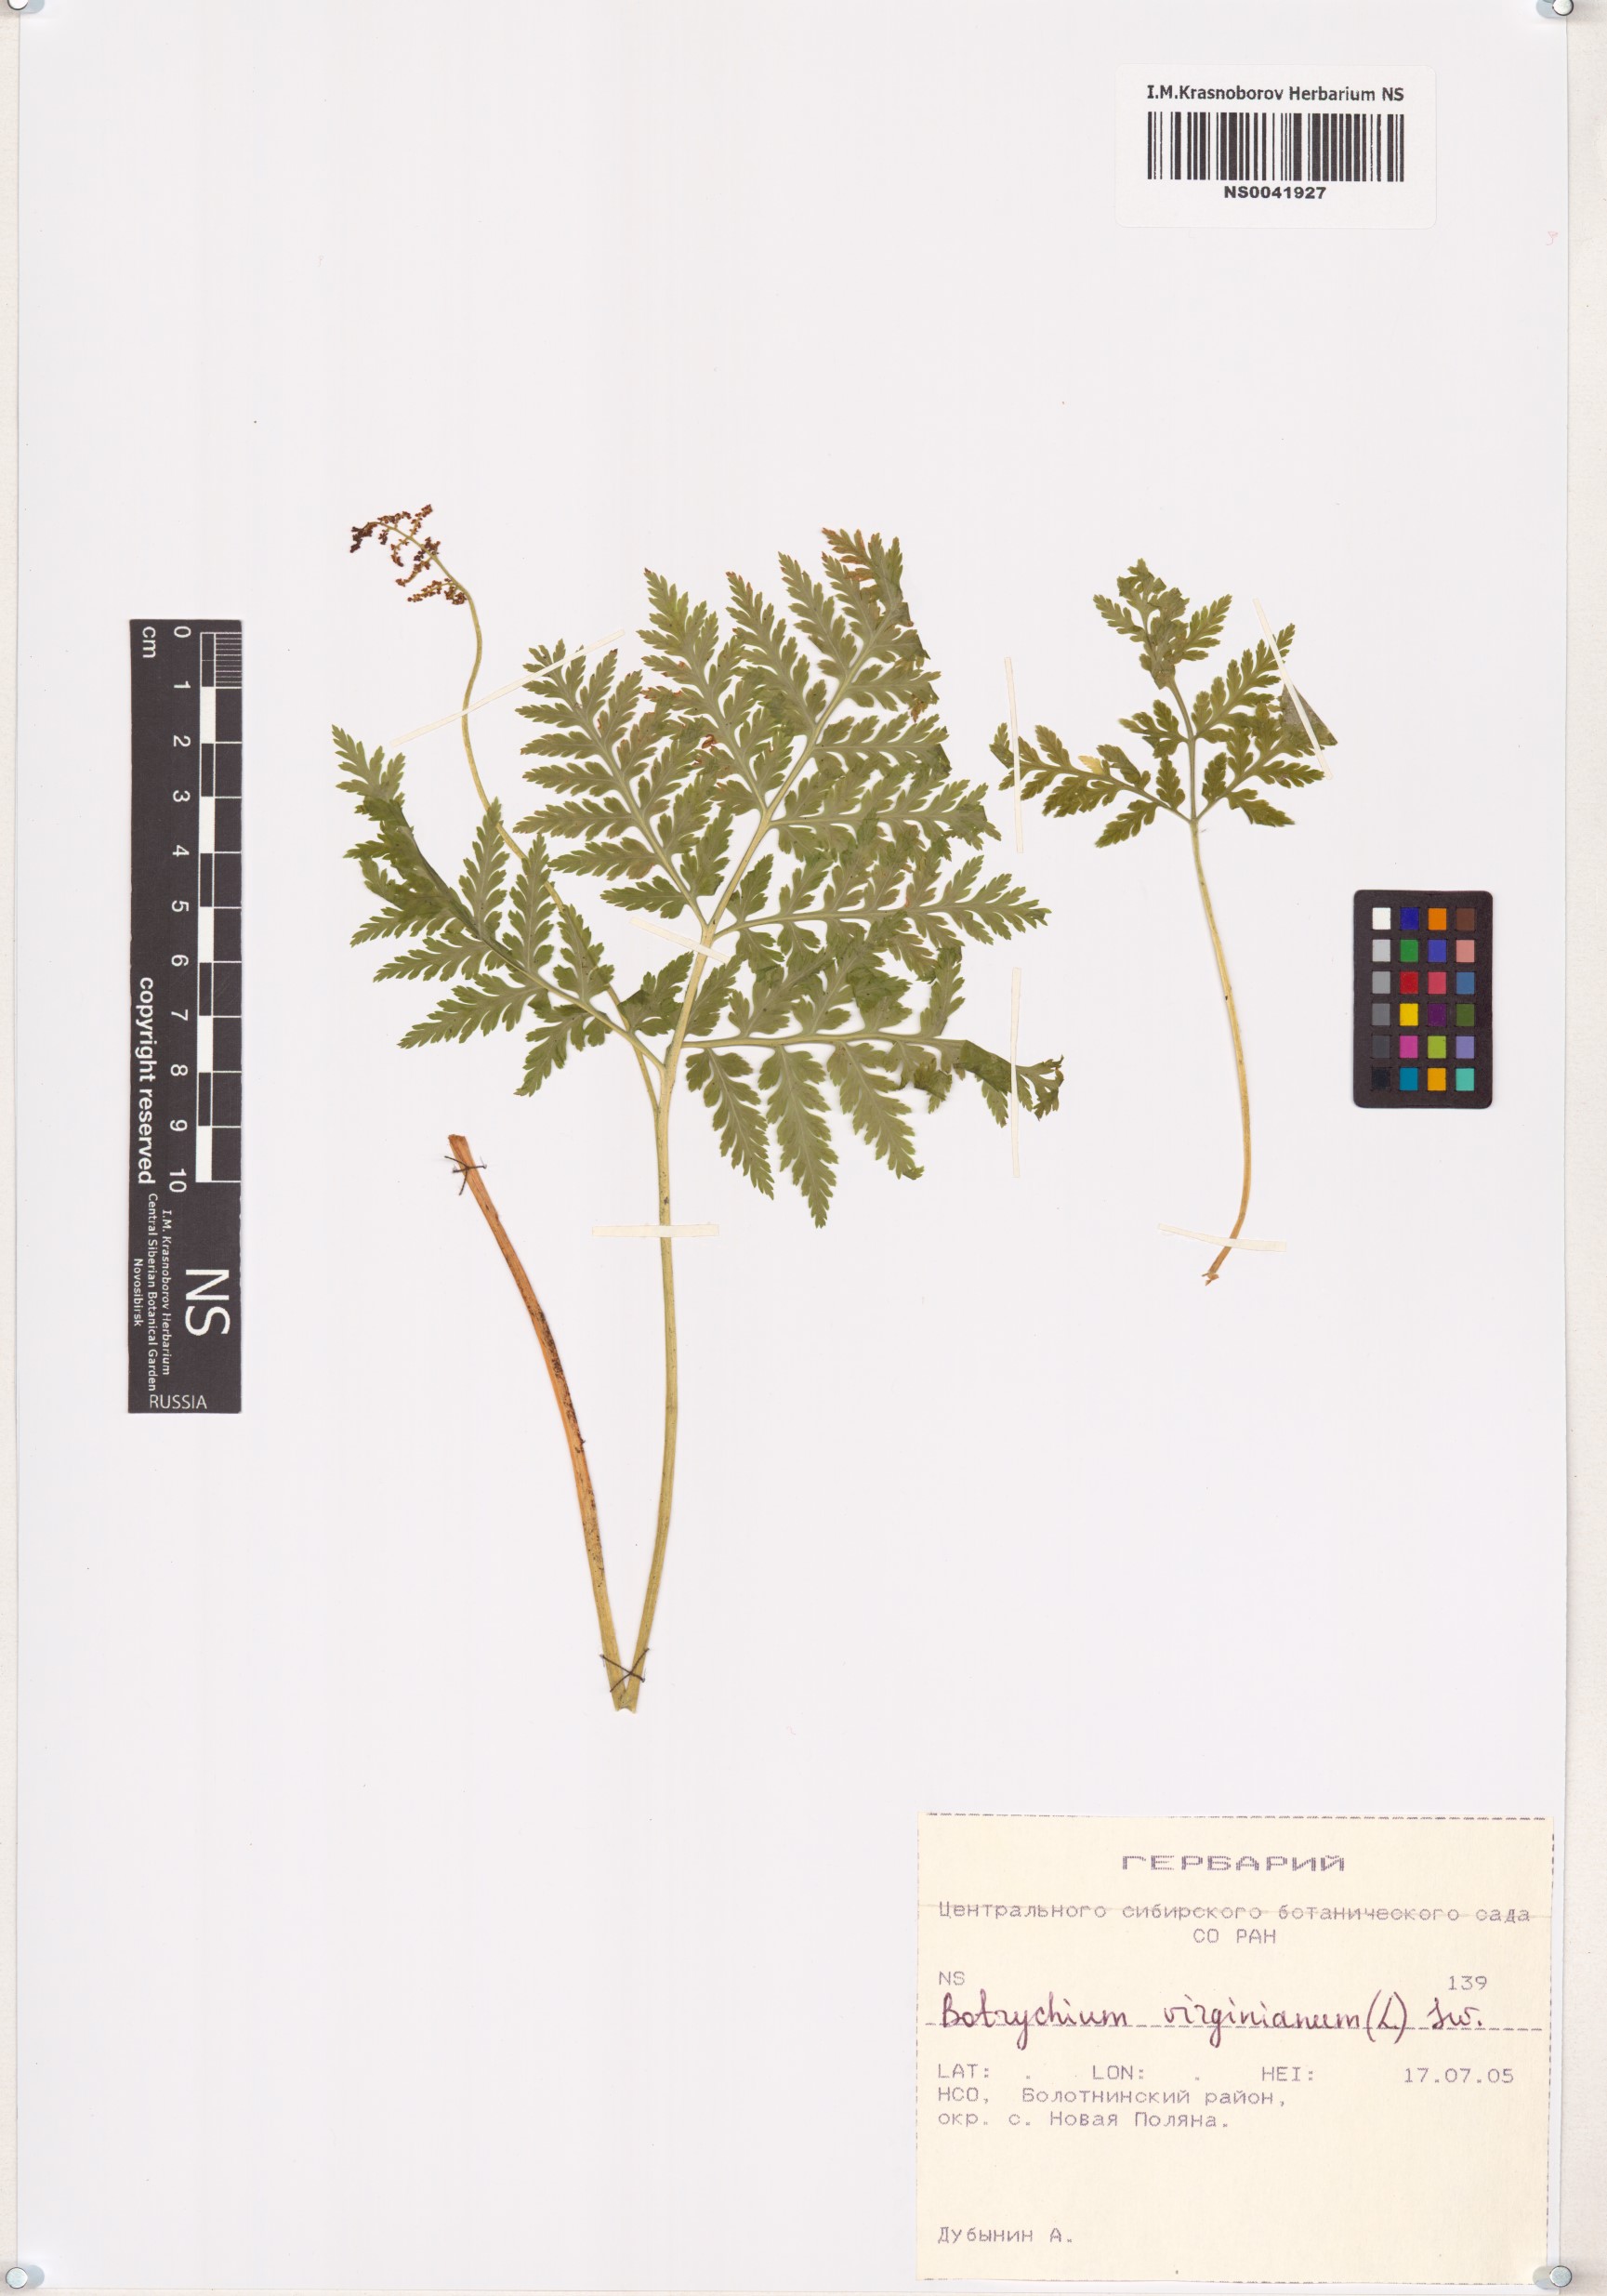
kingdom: Plantae
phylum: Tracheophyta
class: Polypodiopsida
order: Ophioglossales
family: Ophioglossaceae
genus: Botrypus
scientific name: Botrypus virginianus
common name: Common grapefern
